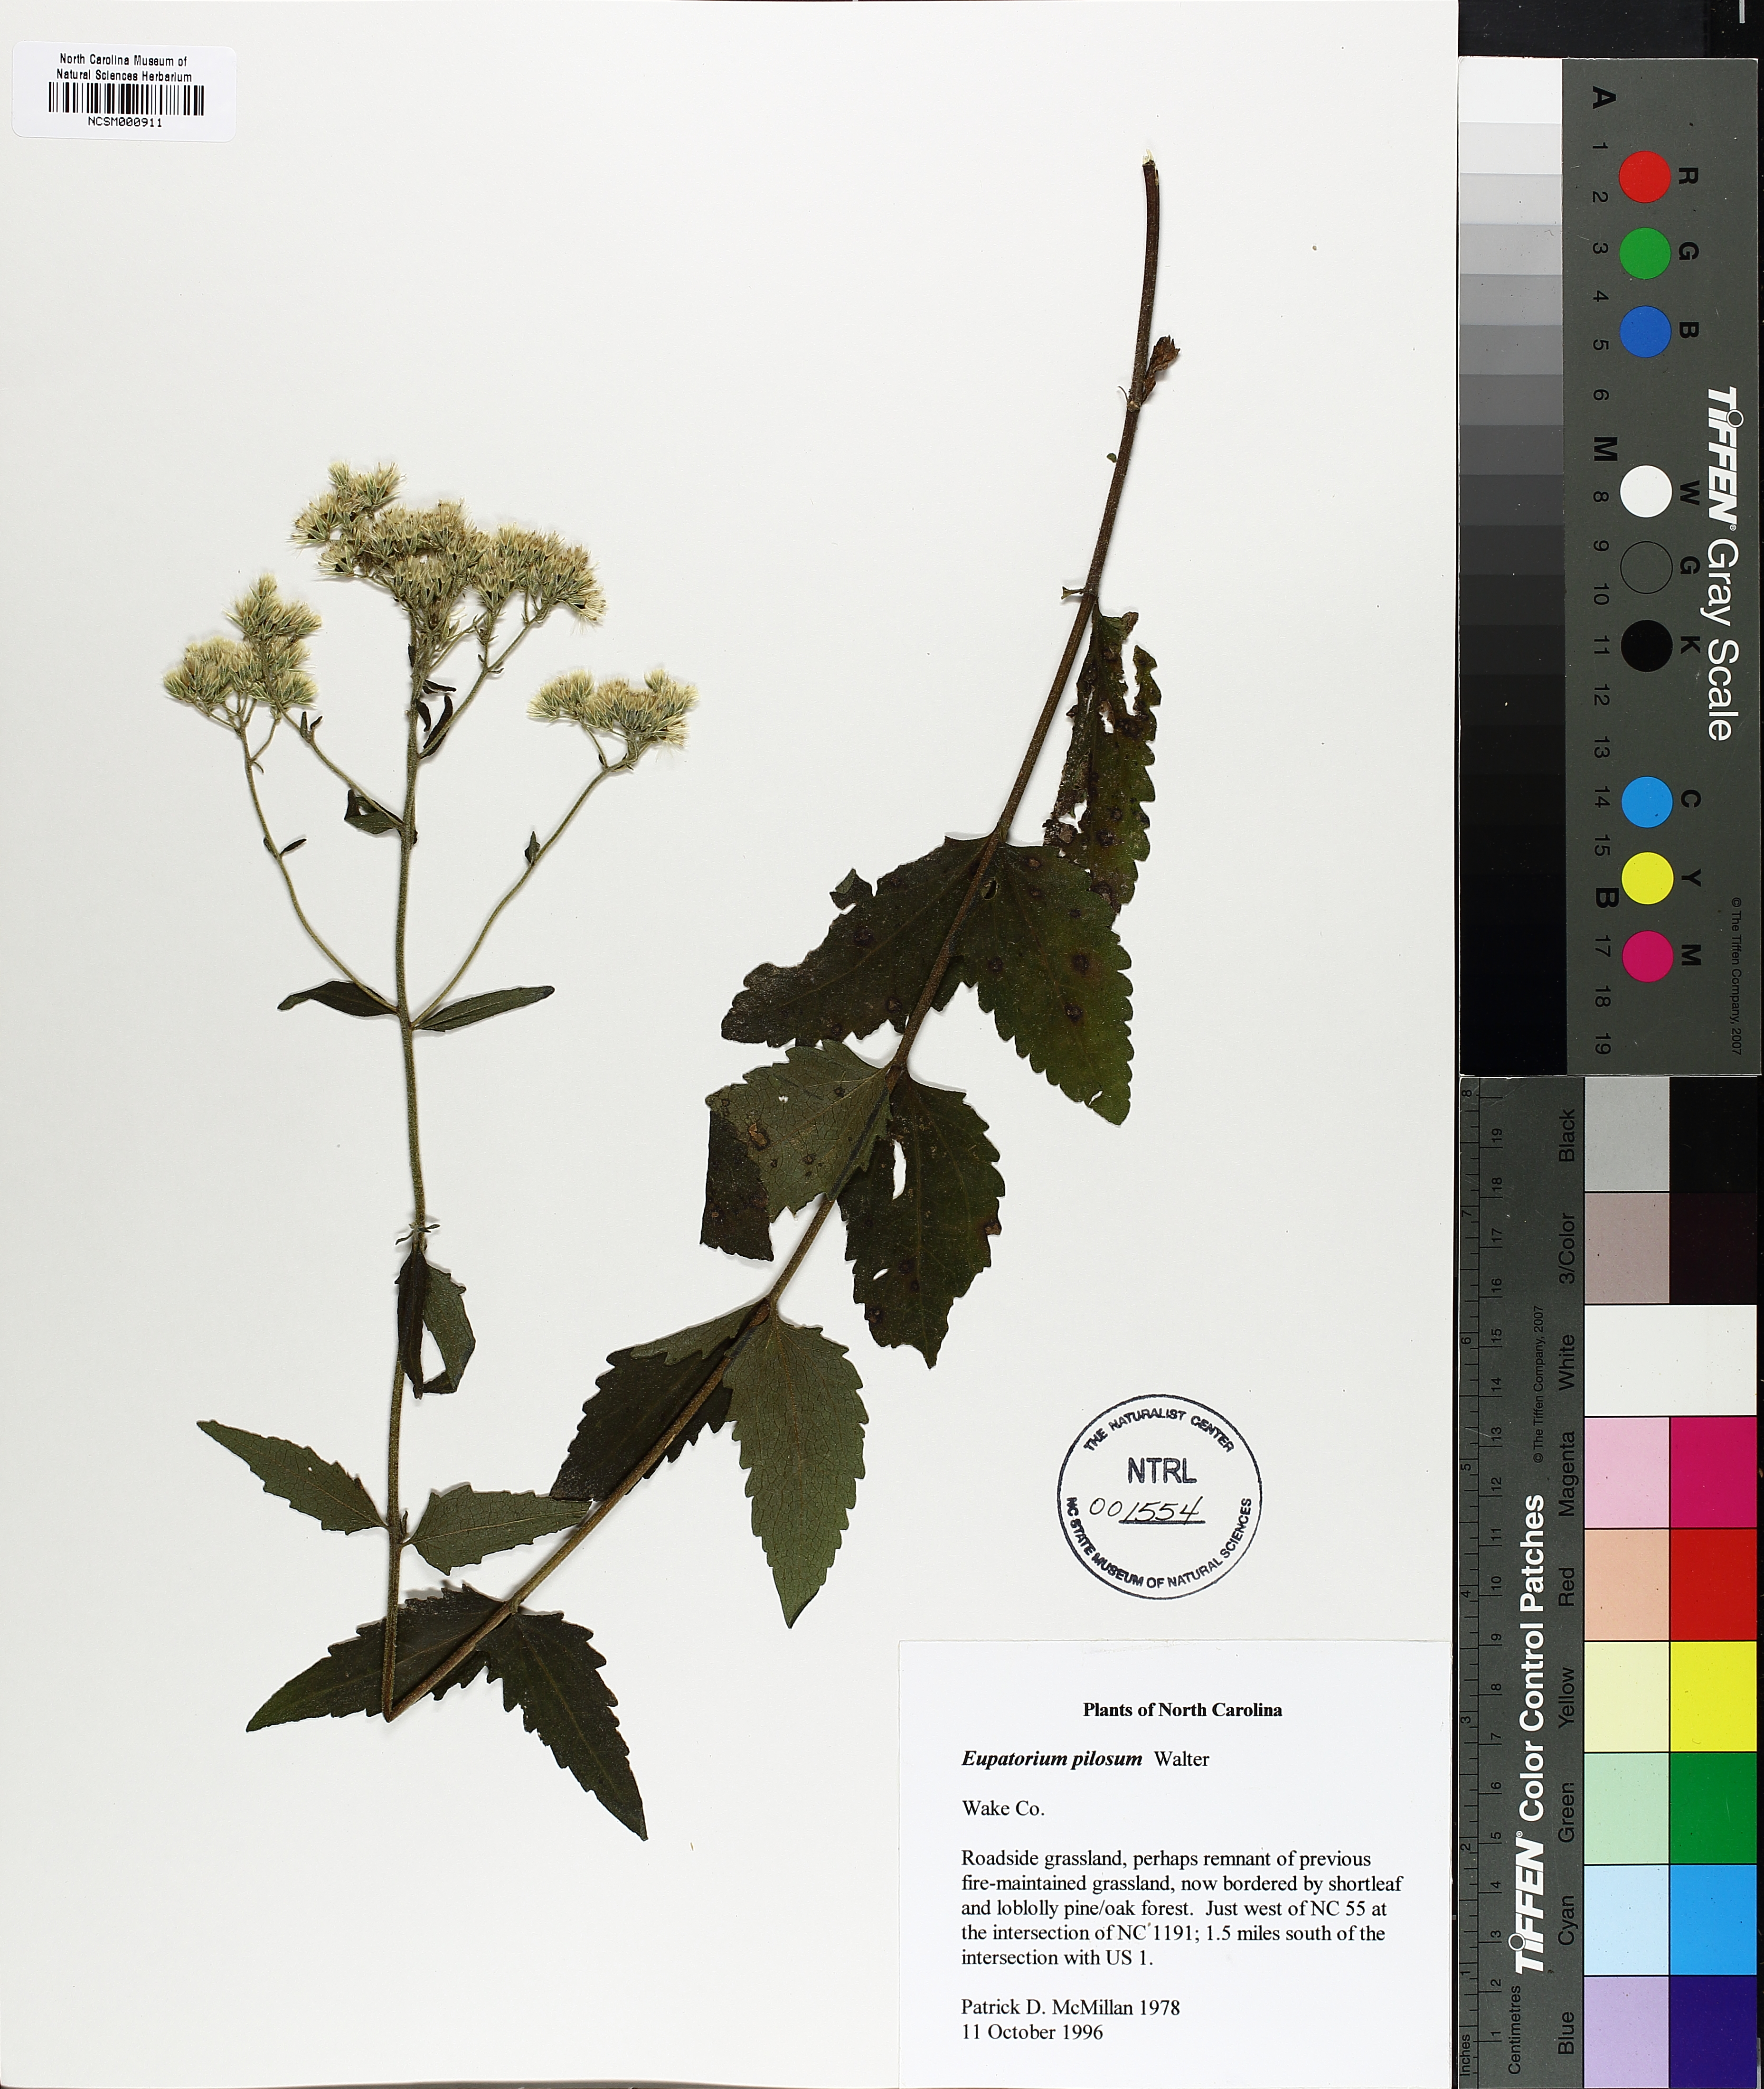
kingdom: Plantae
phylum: Tracheophyta
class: Magnoliopsida
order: Asterales
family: Asteraceae
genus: Eupatorium
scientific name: Eupatorium pilosum
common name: Rough boneset
